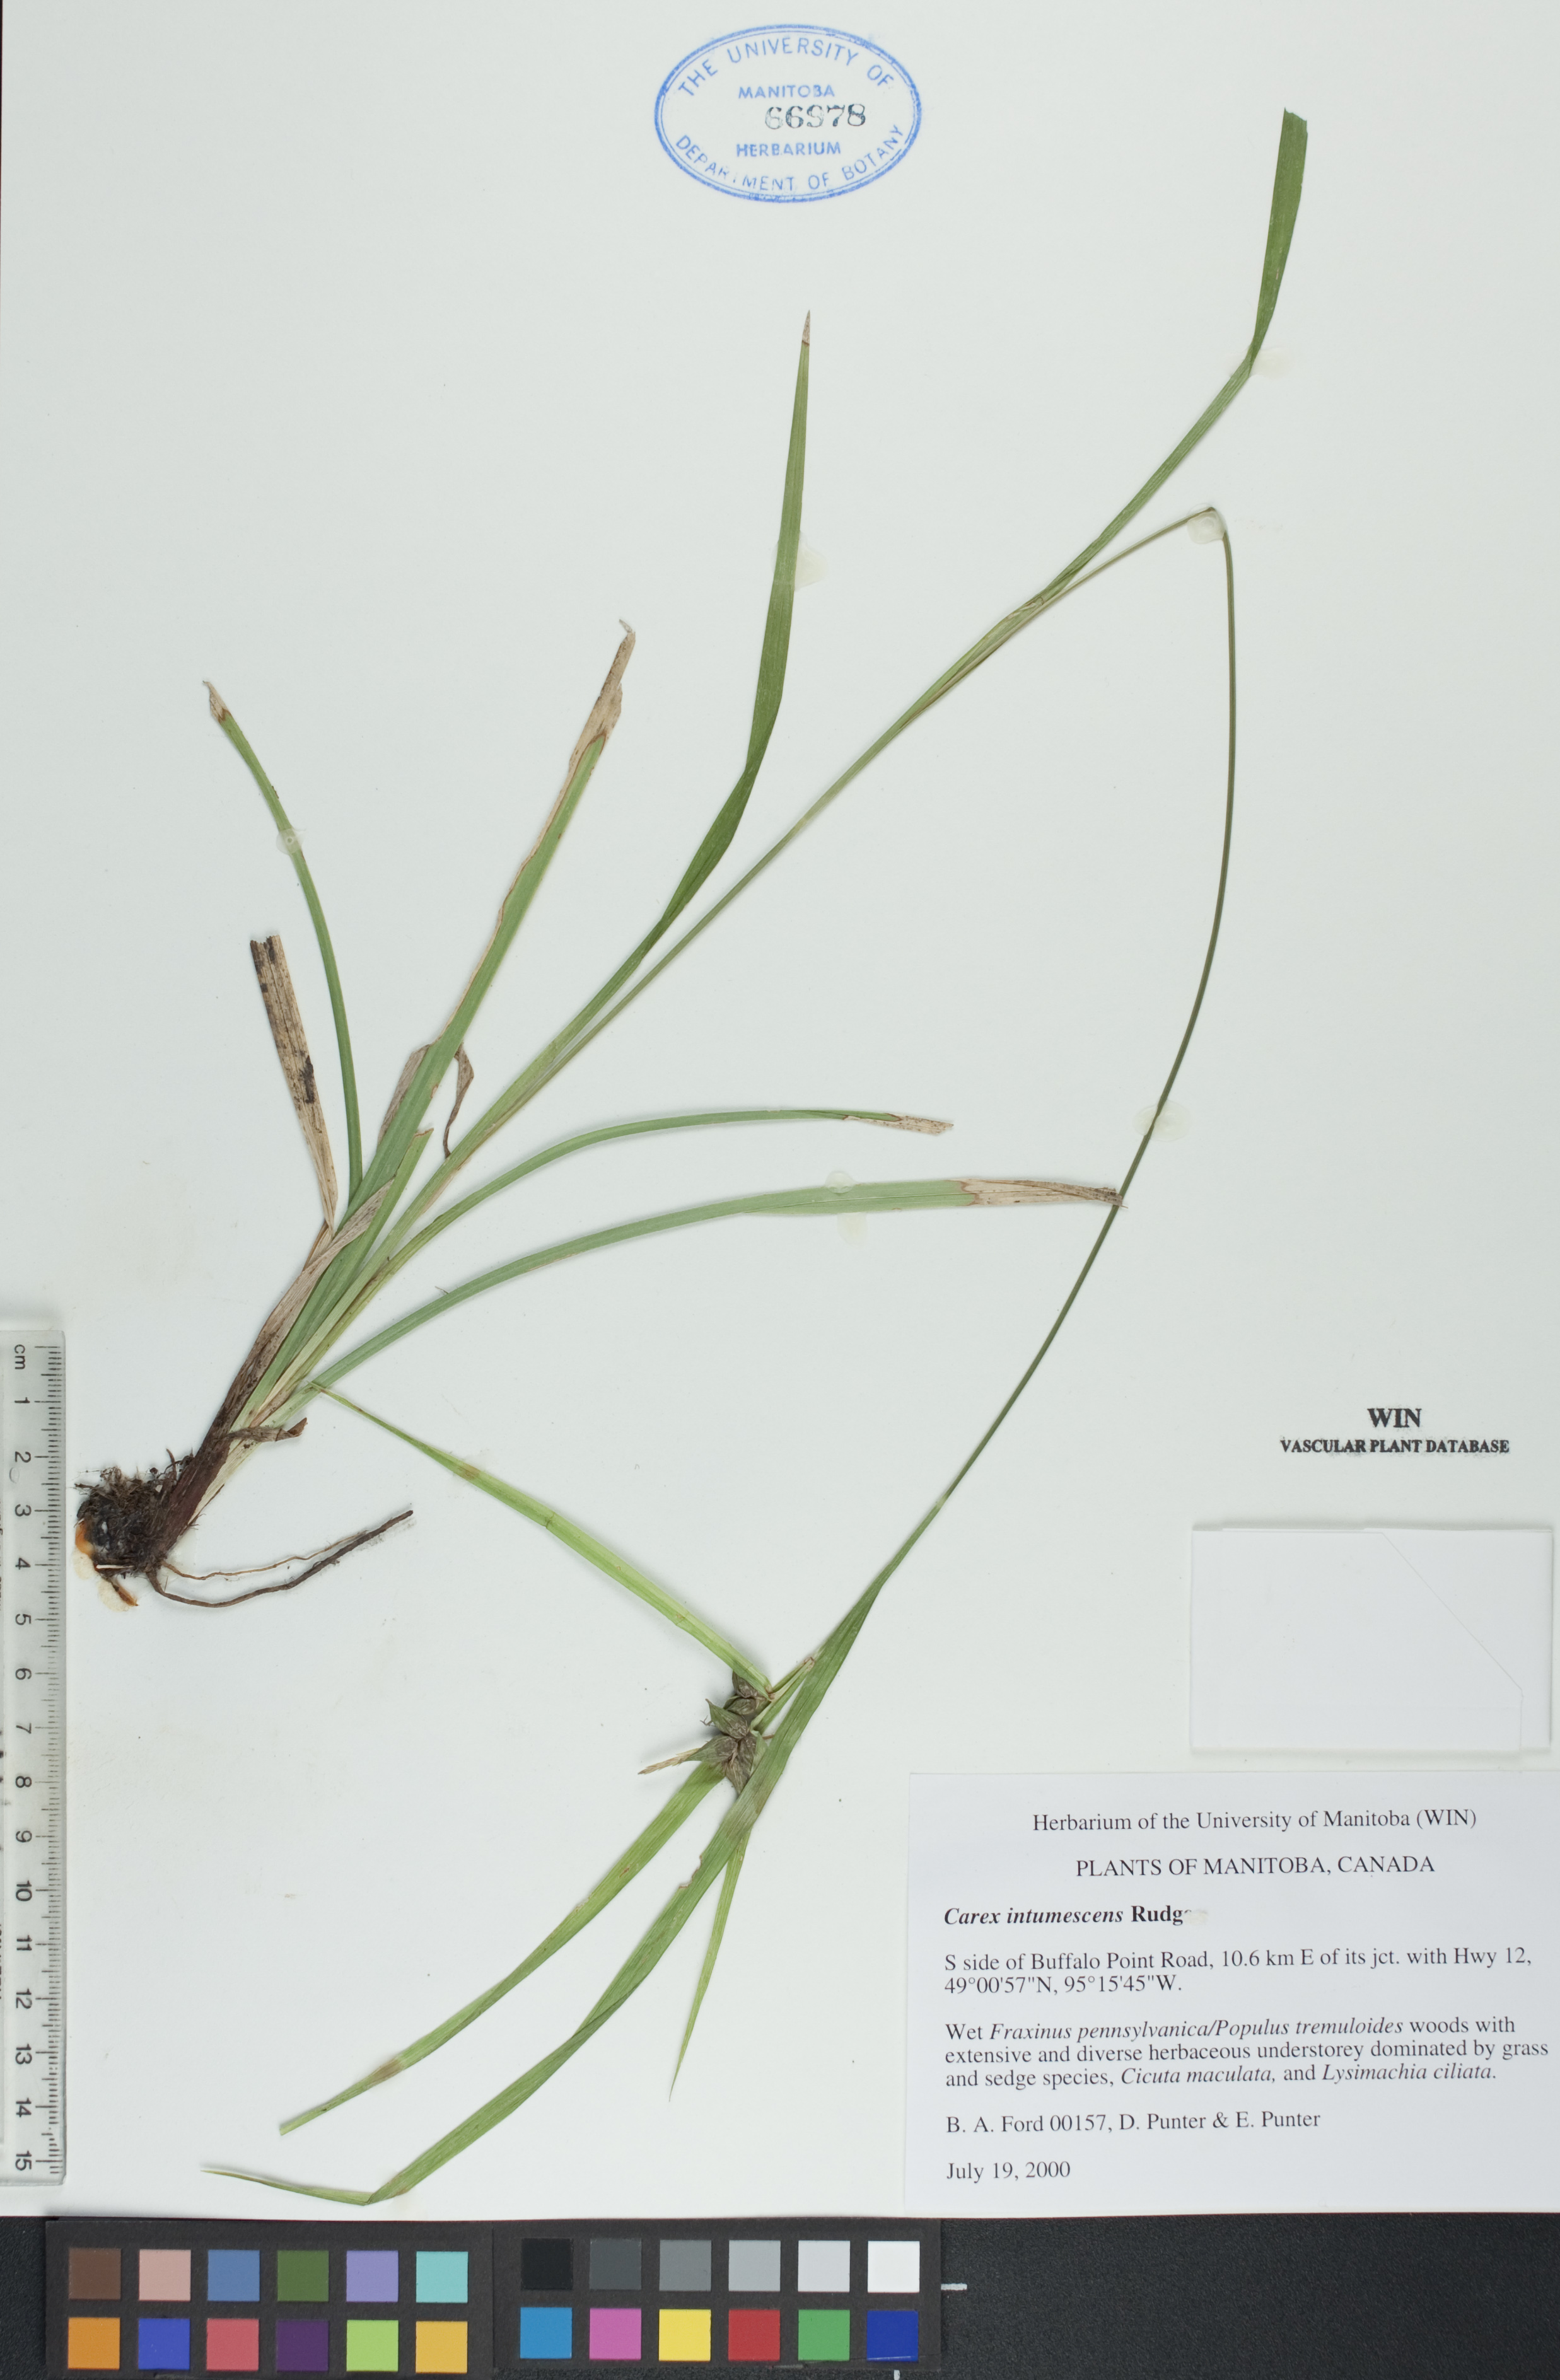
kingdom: Plantae
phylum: Tracheophyta
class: Liliopsida
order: Poales
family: Cyperaceae
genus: Carex
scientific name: Carex intumescens
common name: Greater bladder sedge
